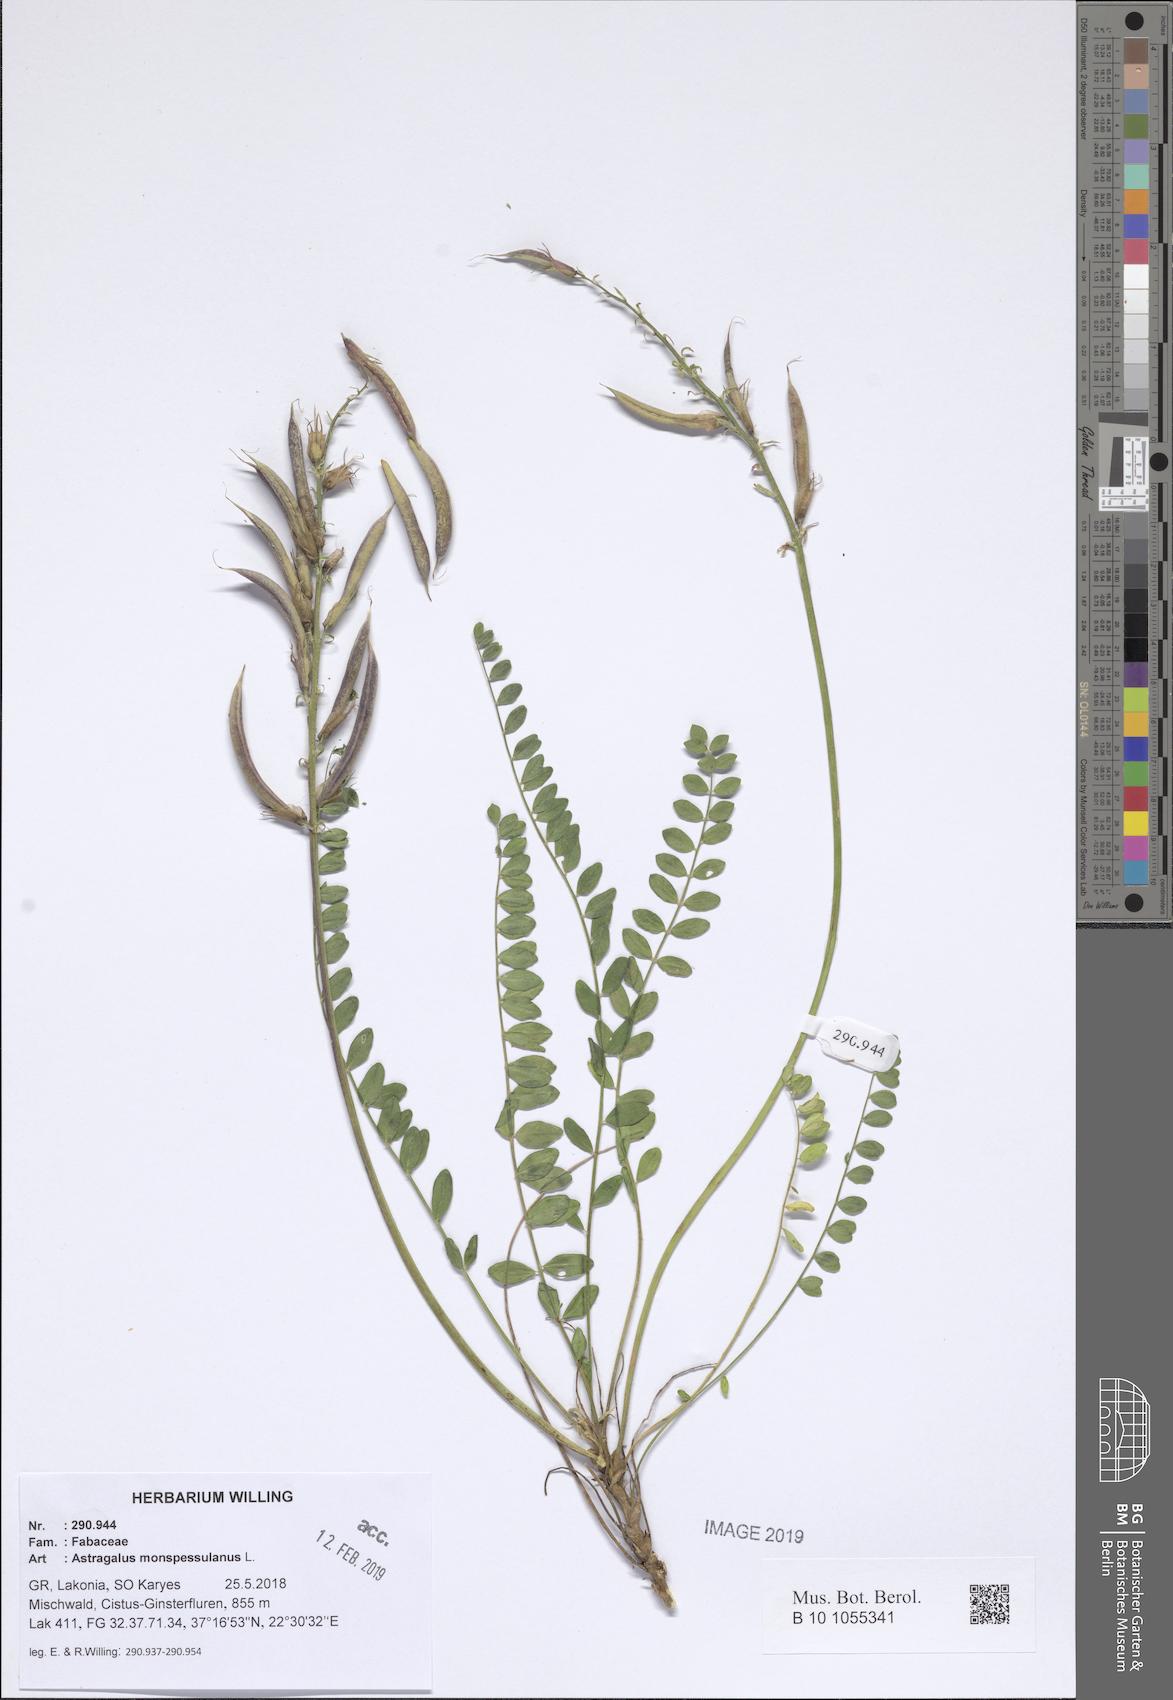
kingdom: Plantae
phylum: Tracheophyta
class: Magnoliopsida
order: Fabales
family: Fabaceae
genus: Astragalus
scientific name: Astragalus monspessulanus
